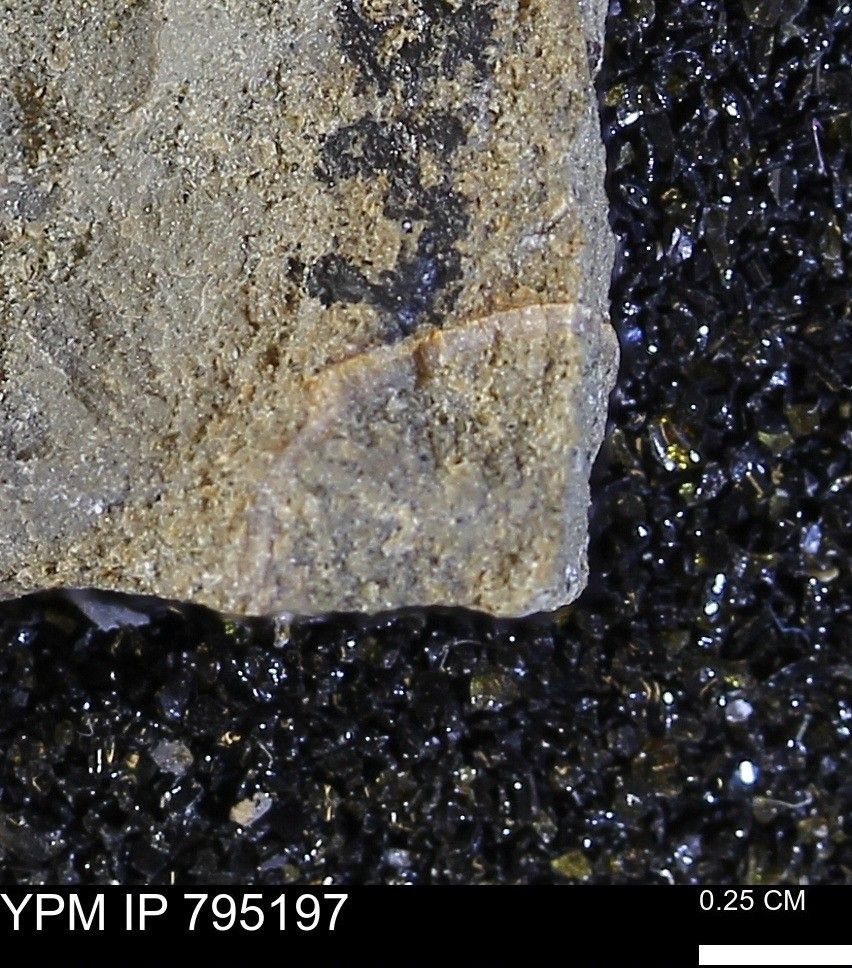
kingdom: Animalia
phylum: Mollusca
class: Bivalvia
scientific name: Bivalvia
